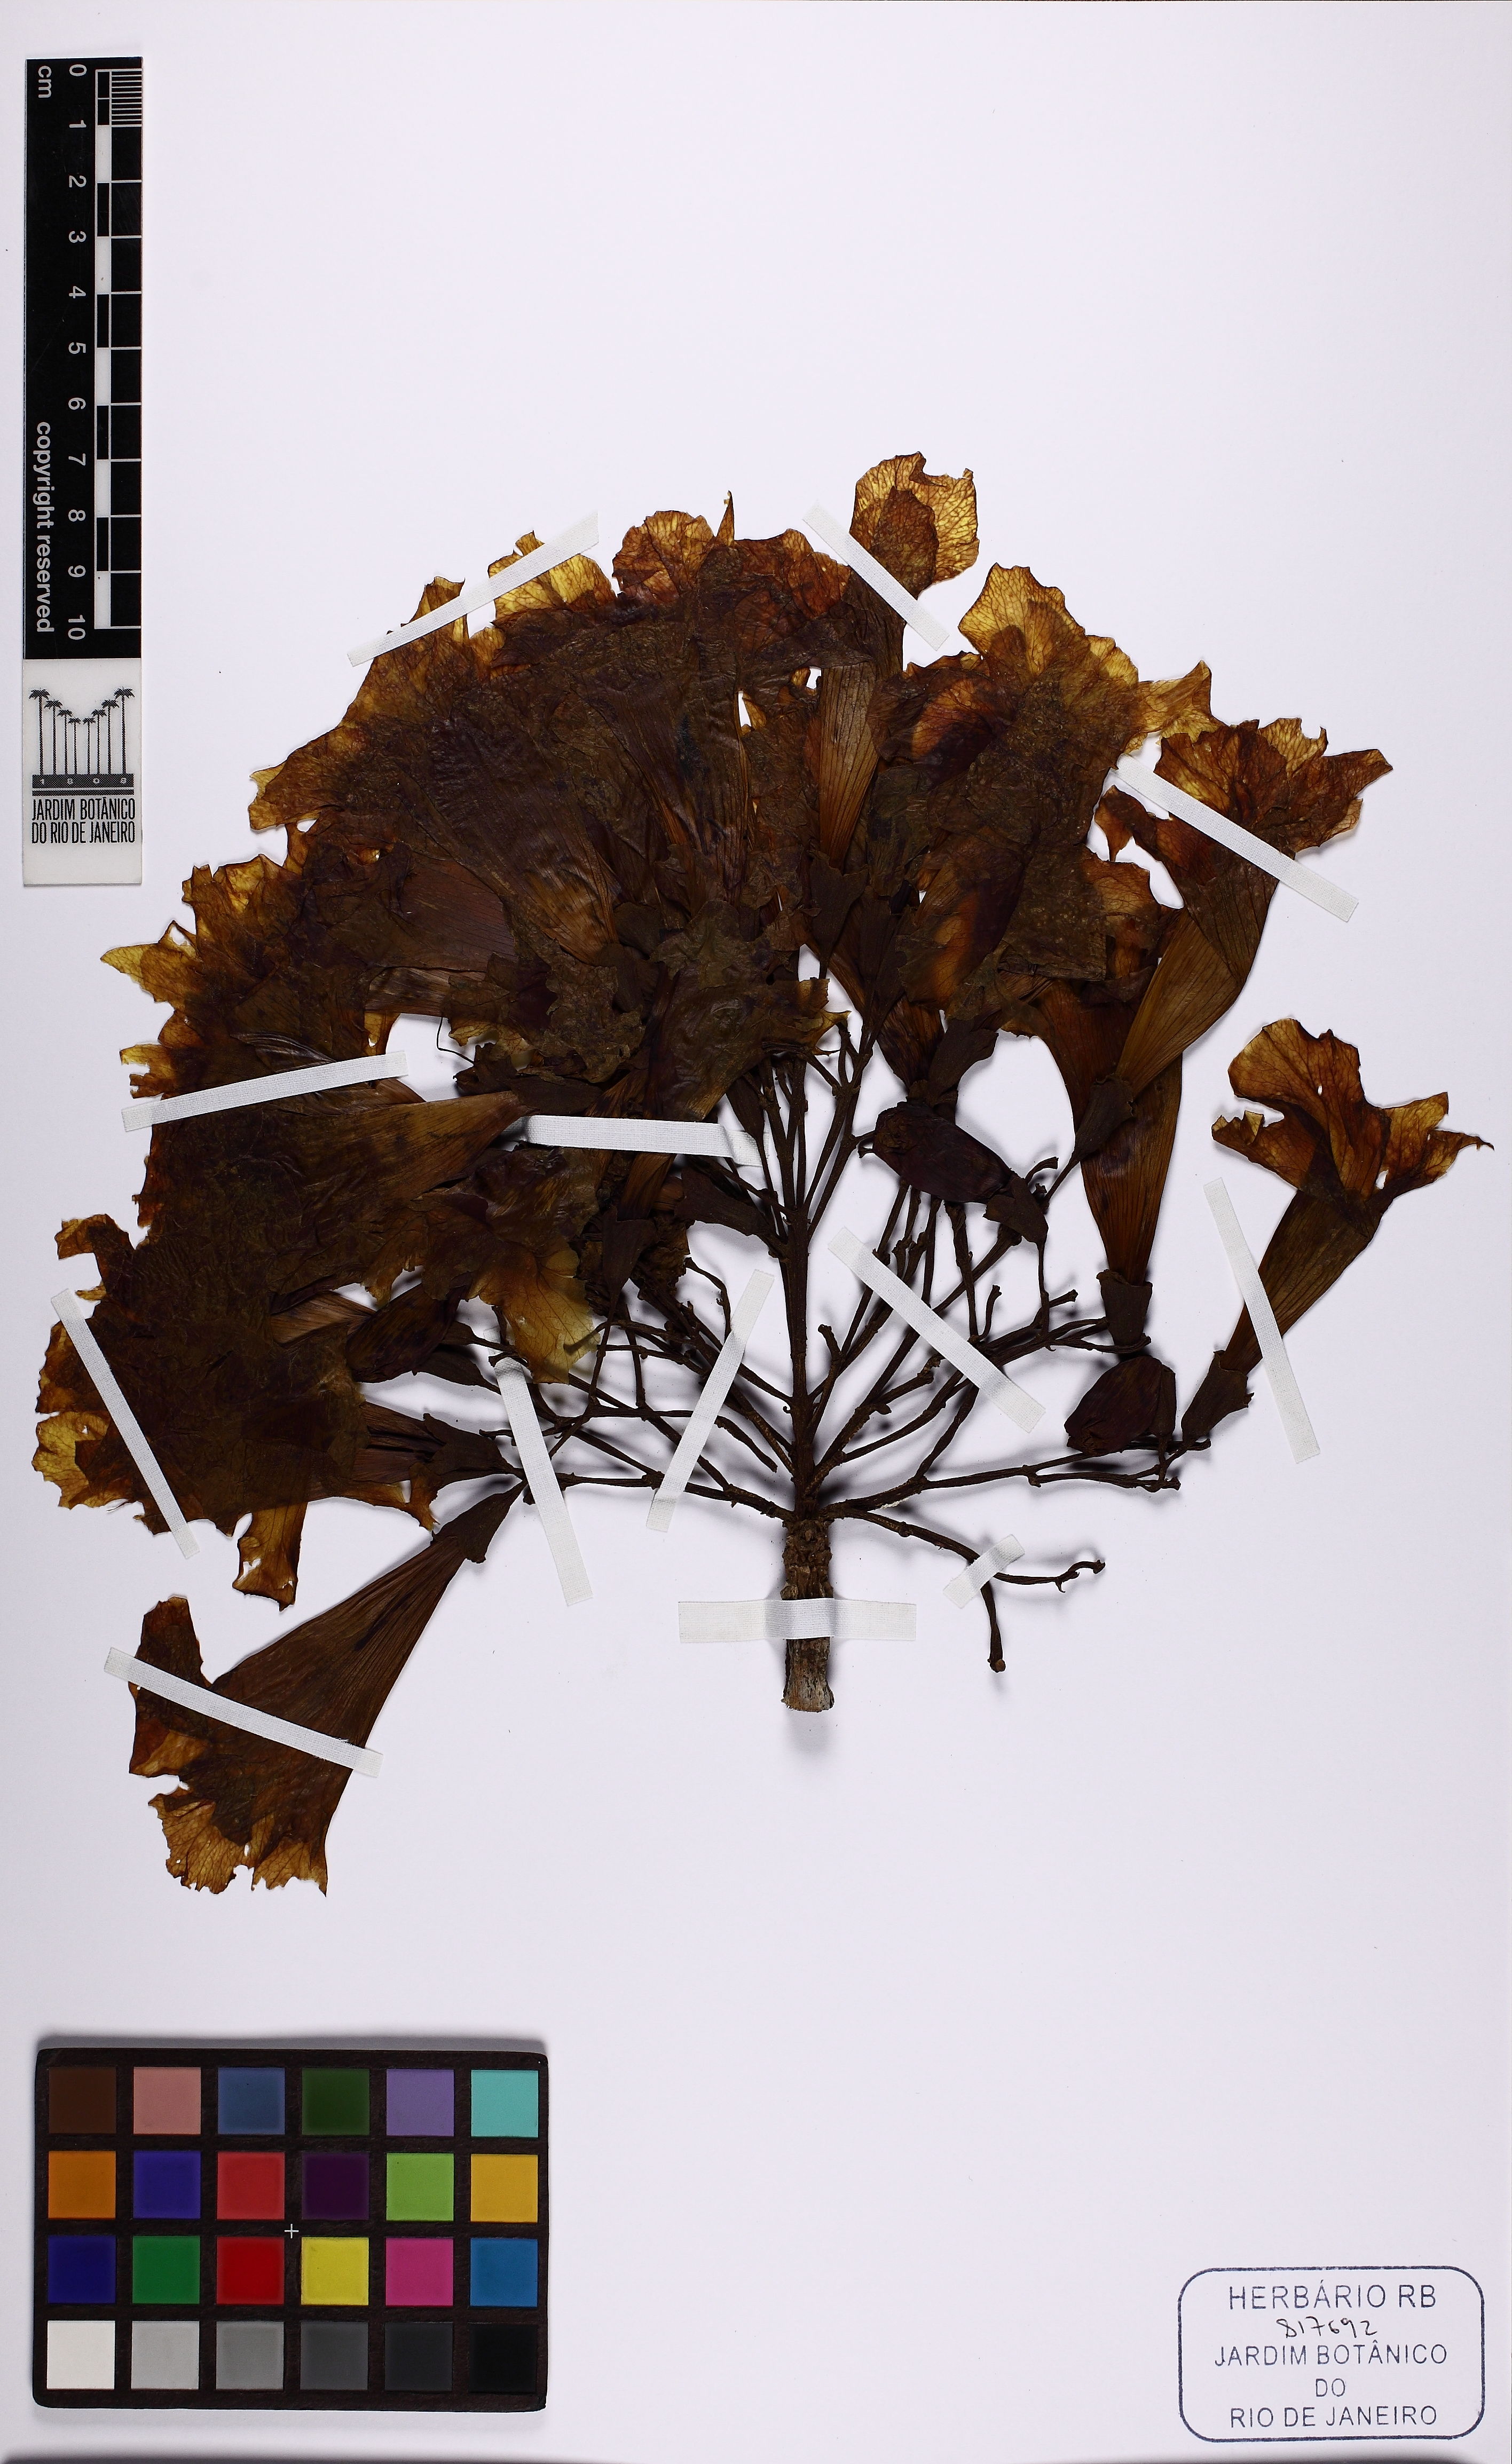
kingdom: Plantae
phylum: Tracheophyta
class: Magnoliopsida
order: Lamiales
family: Bignoniaceae
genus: Tabebuia
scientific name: Tabebuia aurea
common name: Caribbean trumpet-tree
